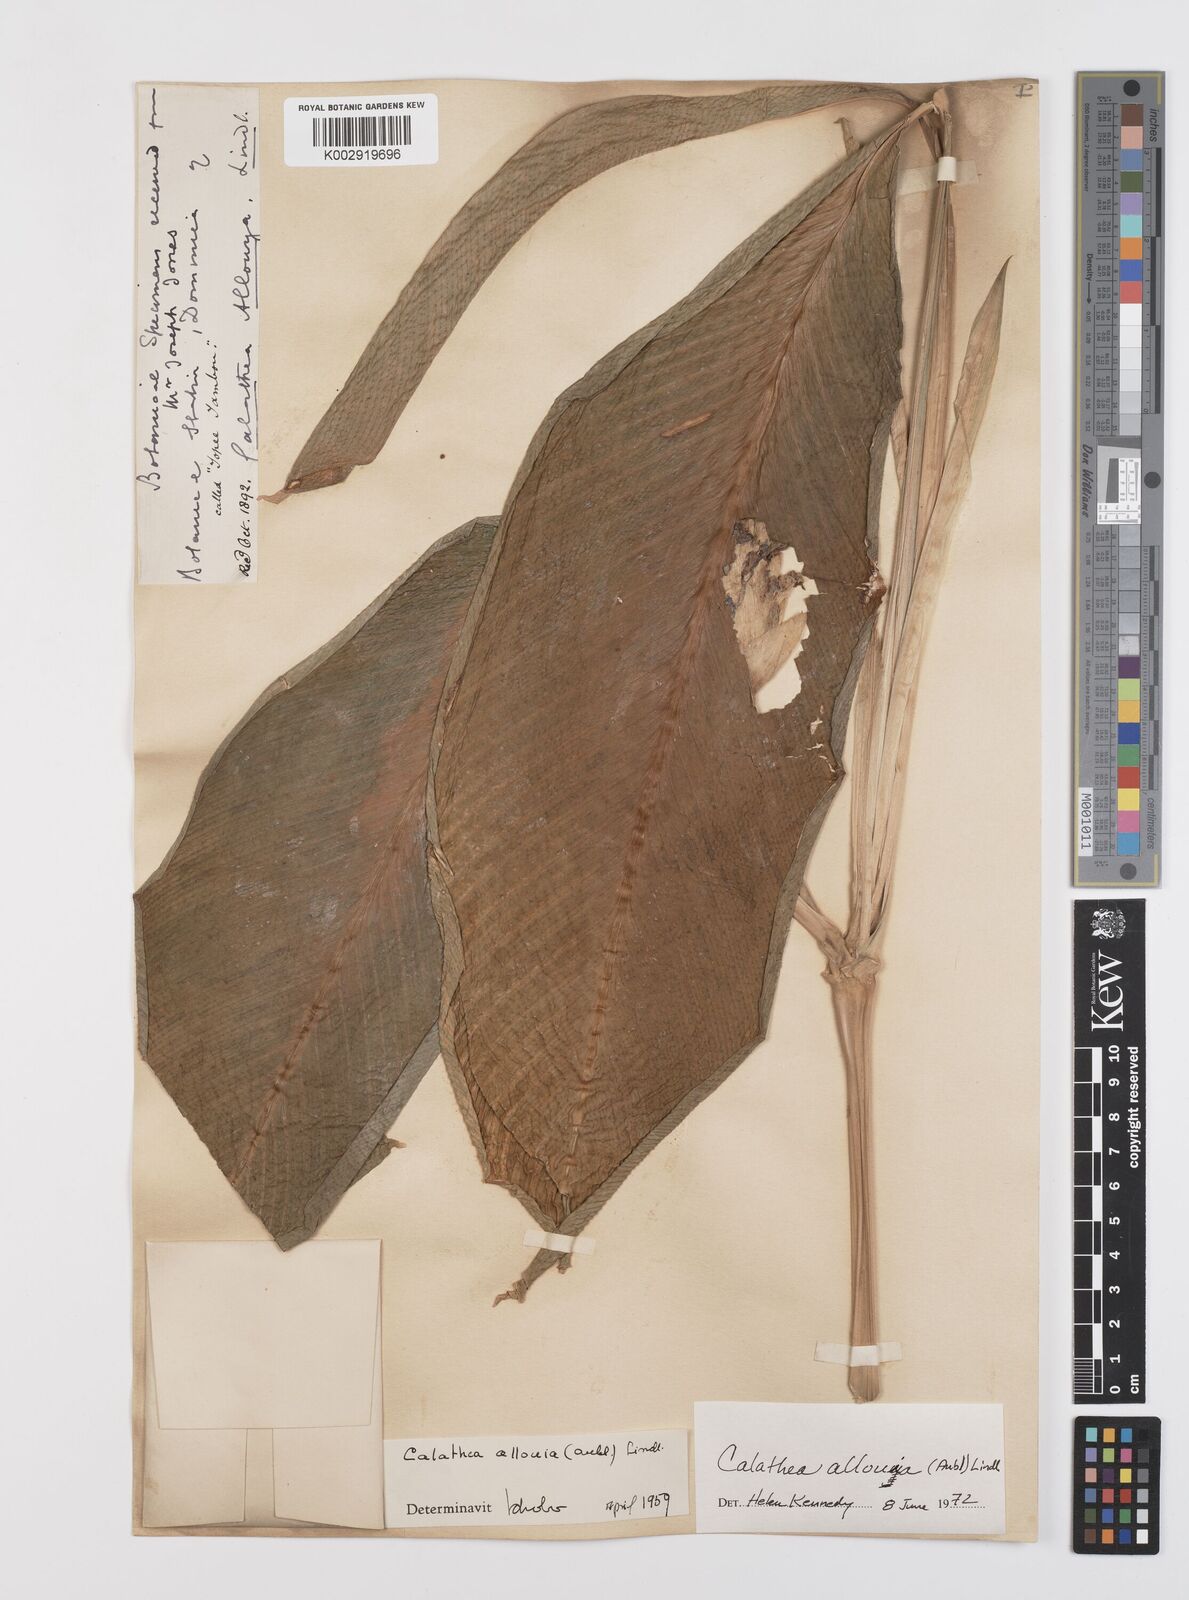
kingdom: Plantae
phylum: Tracheophyta
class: Liliopsida
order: Zingiberales
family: Marantaceae
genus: Goeppertia
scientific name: Goeppertia allouia
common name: Sweet corn-tuber
